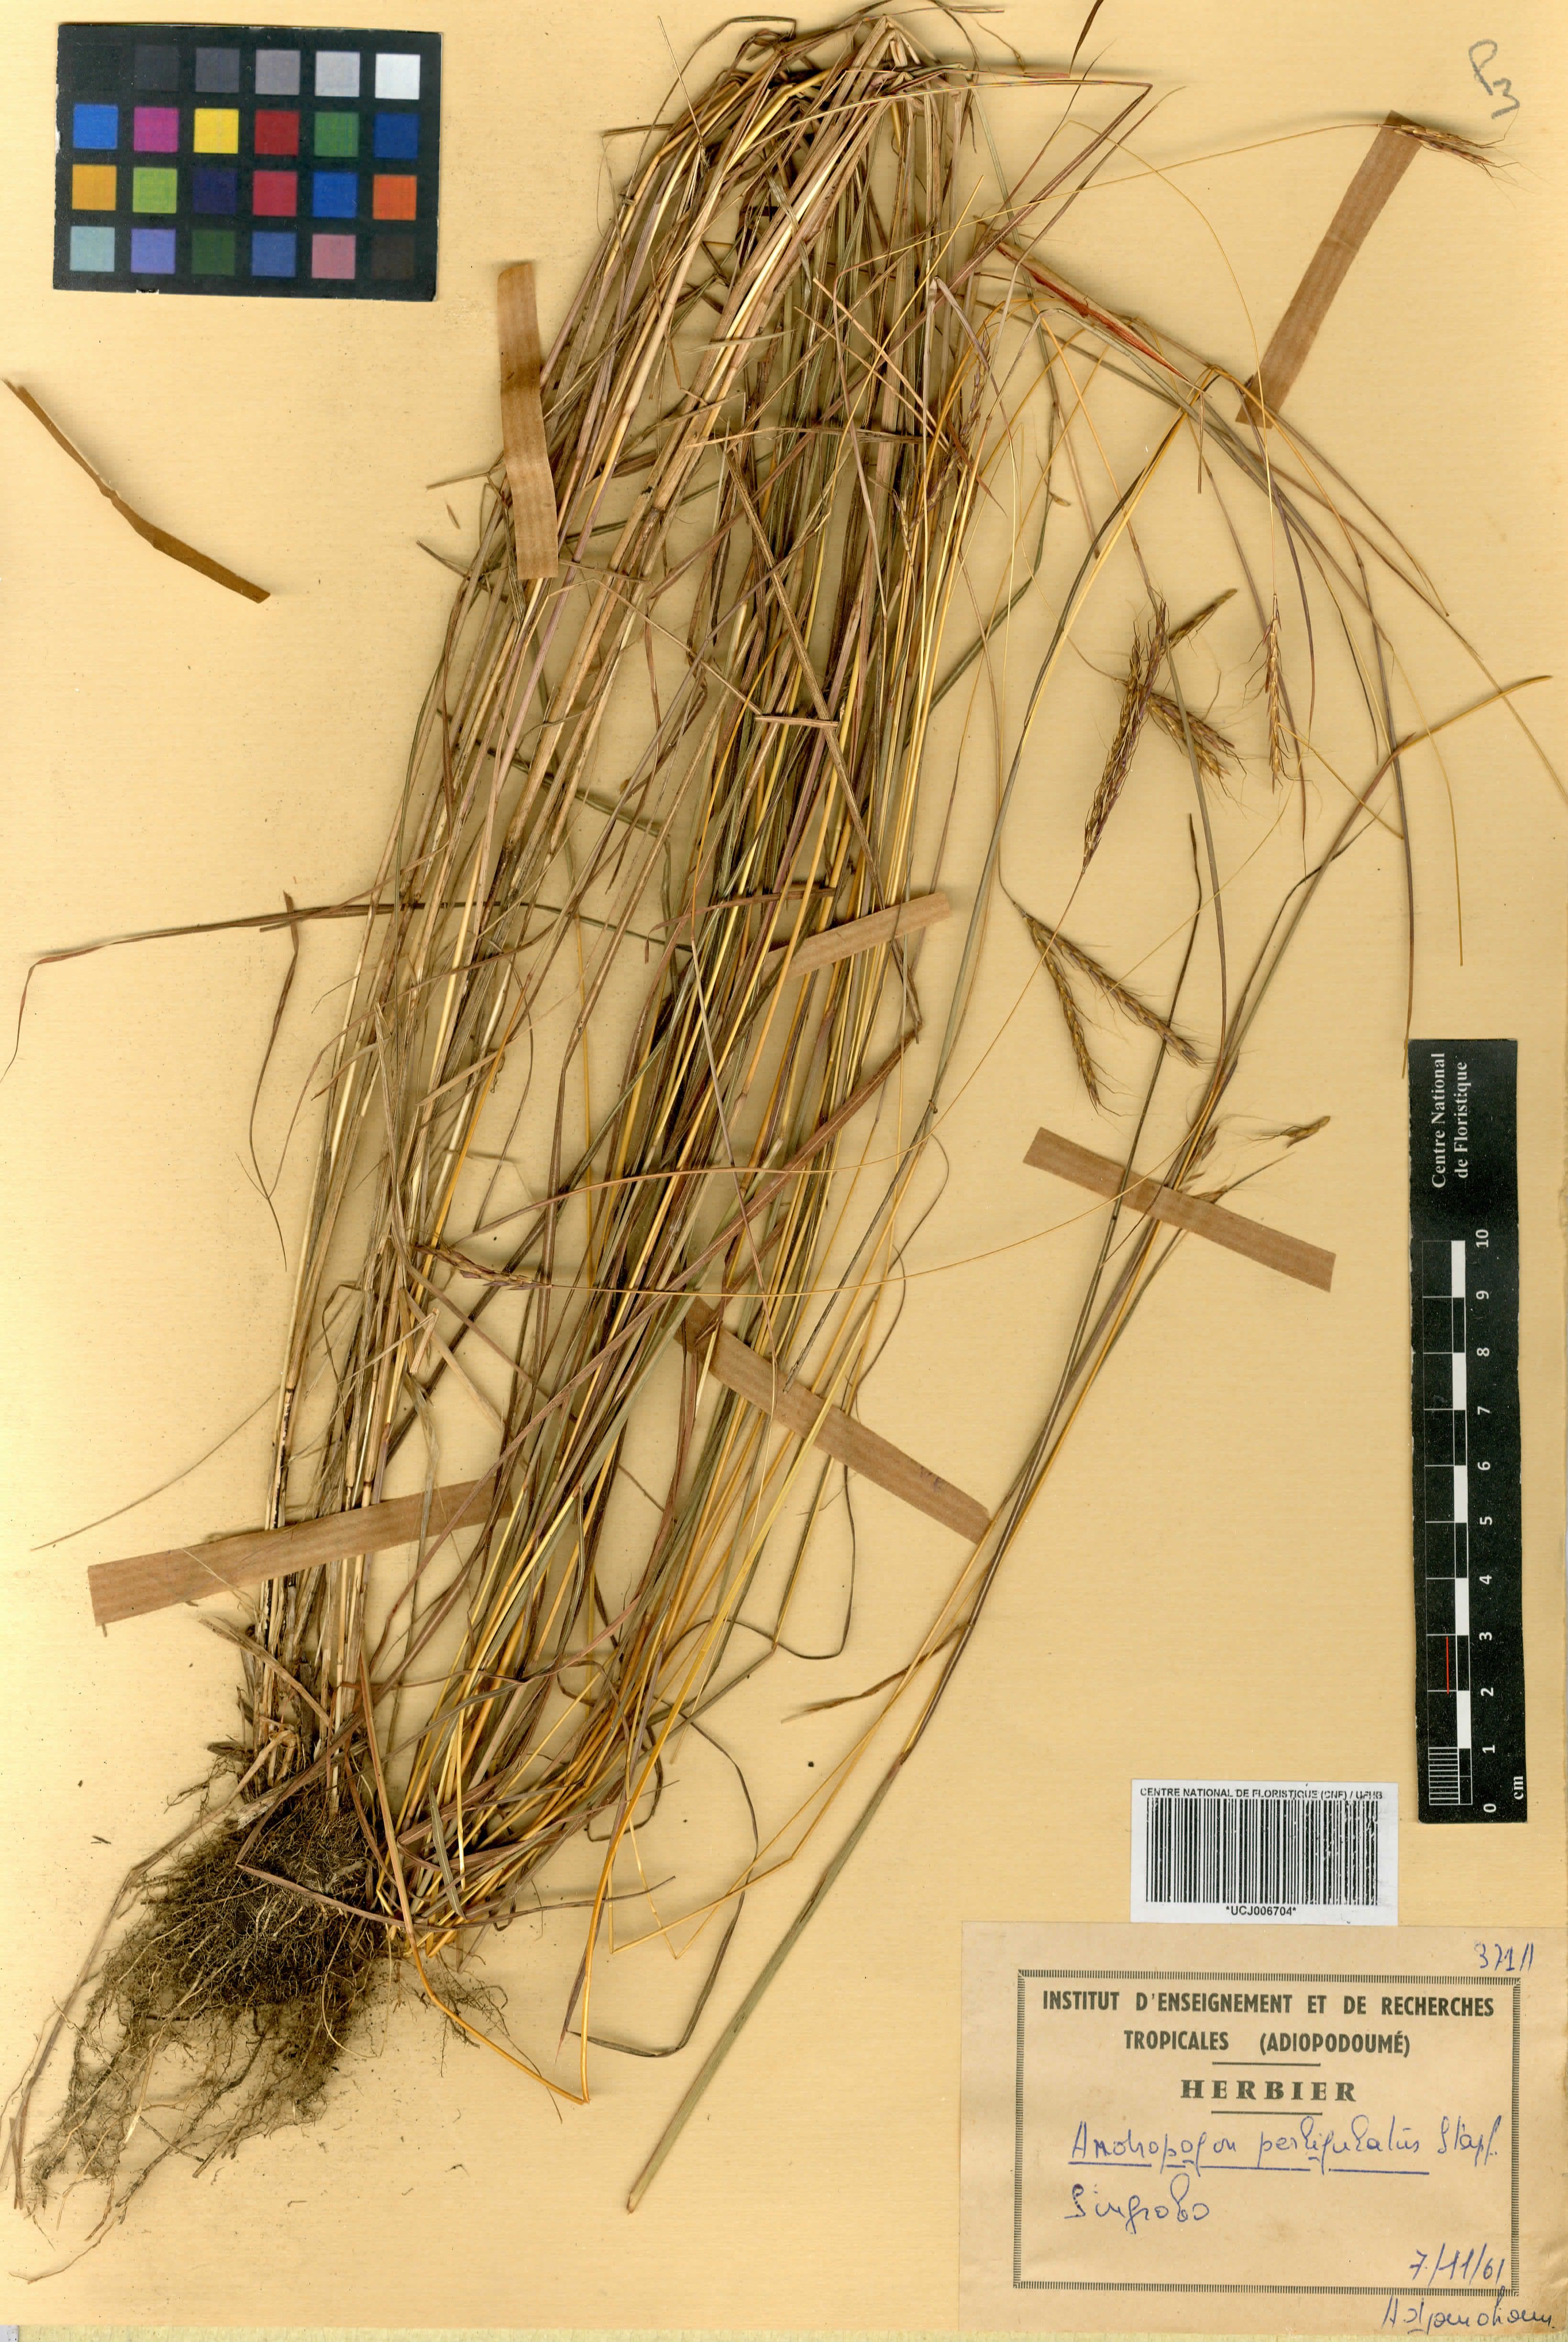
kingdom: Plantae
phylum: Tracheophyta
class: Liliopsida
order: Poales
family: Poaceae
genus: Andropogon
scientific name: Andropogon pseudapricus
